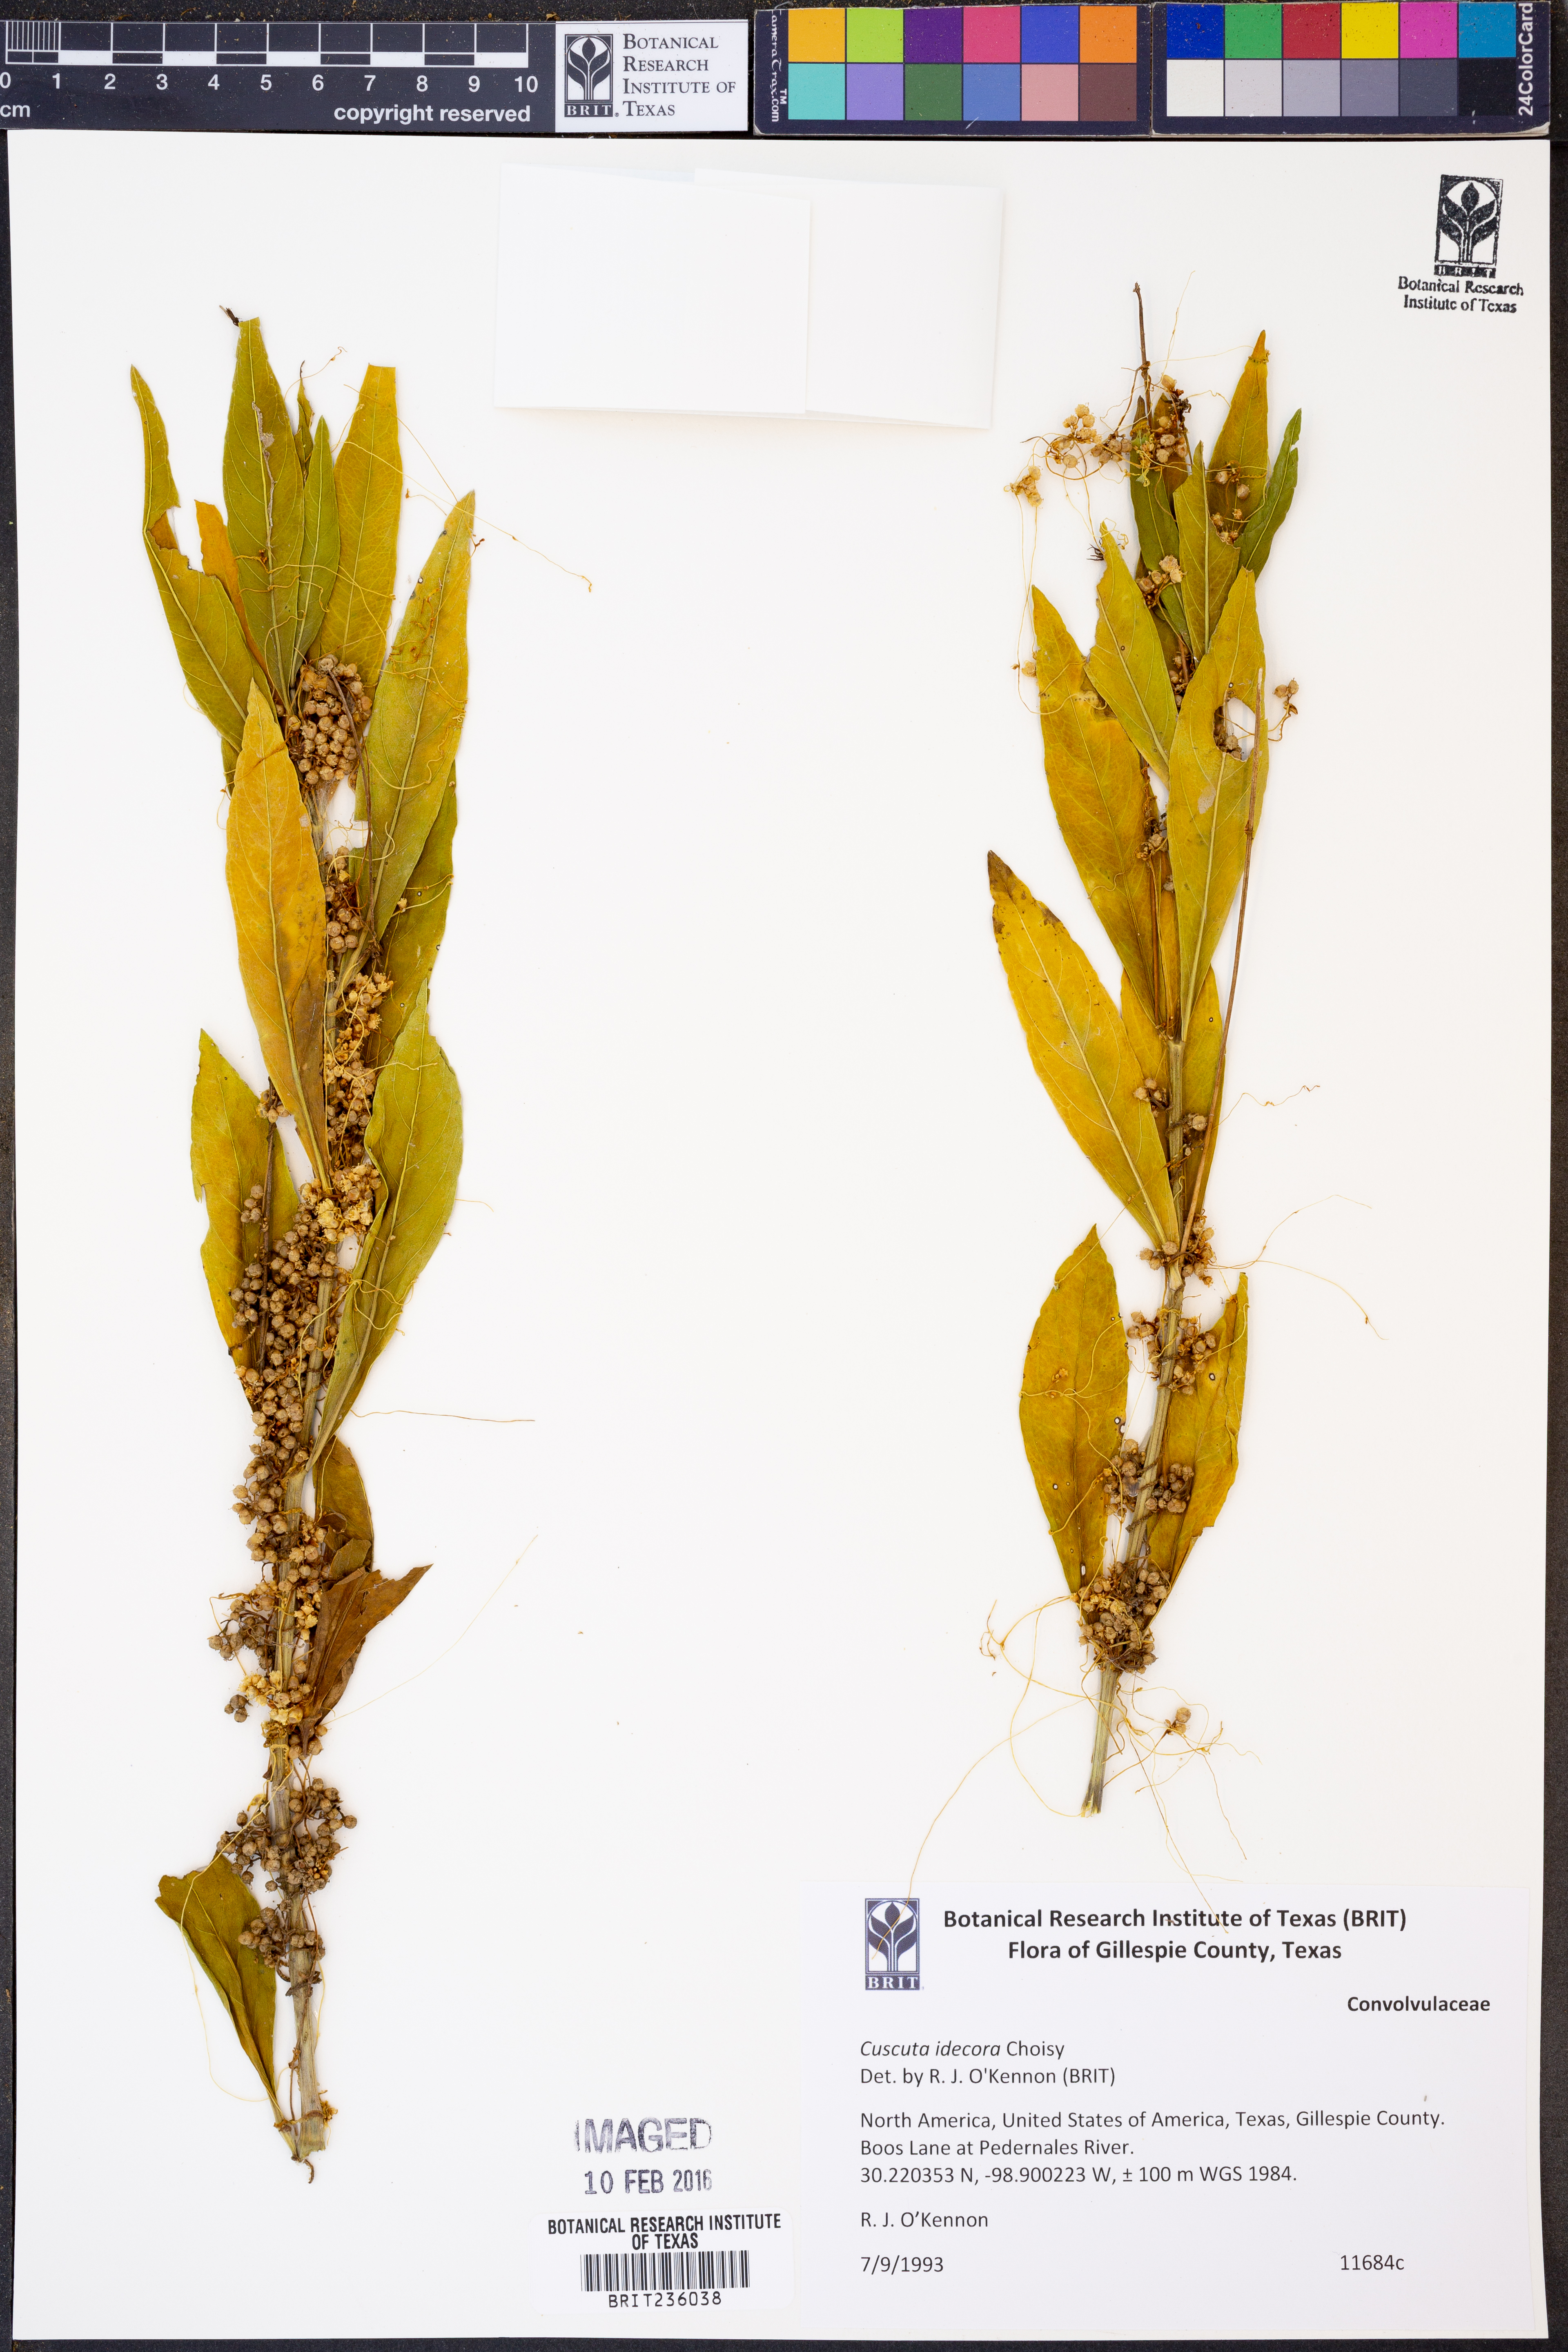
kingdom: Plantae
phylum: Tracheophyta
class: Magnoliopsida
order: Solanales
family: Convolvulaceae
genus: Cuscuta
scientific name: Cuscuta indecora
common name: Large-seed dodder
